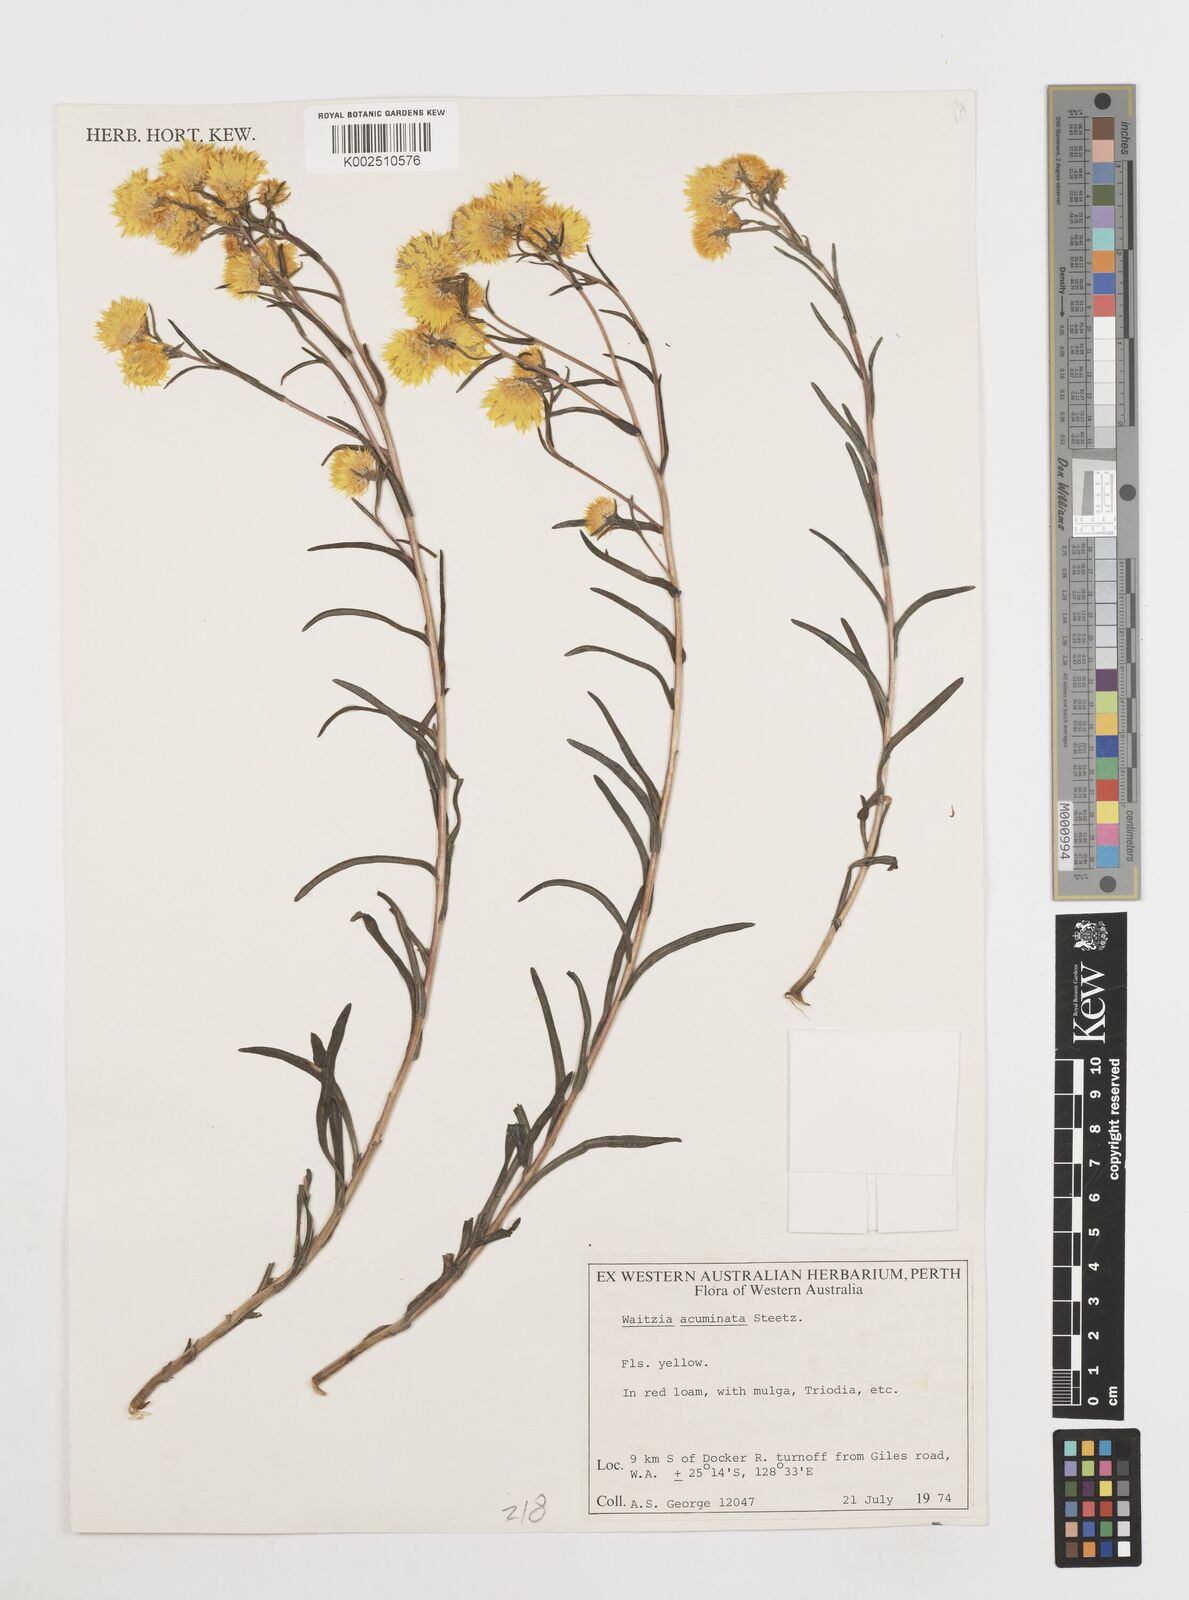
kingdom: Plantae
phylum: Tracheophyta
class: Magnoliopsida
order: Asterales
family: Asteraceae
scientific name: Asteraceae
